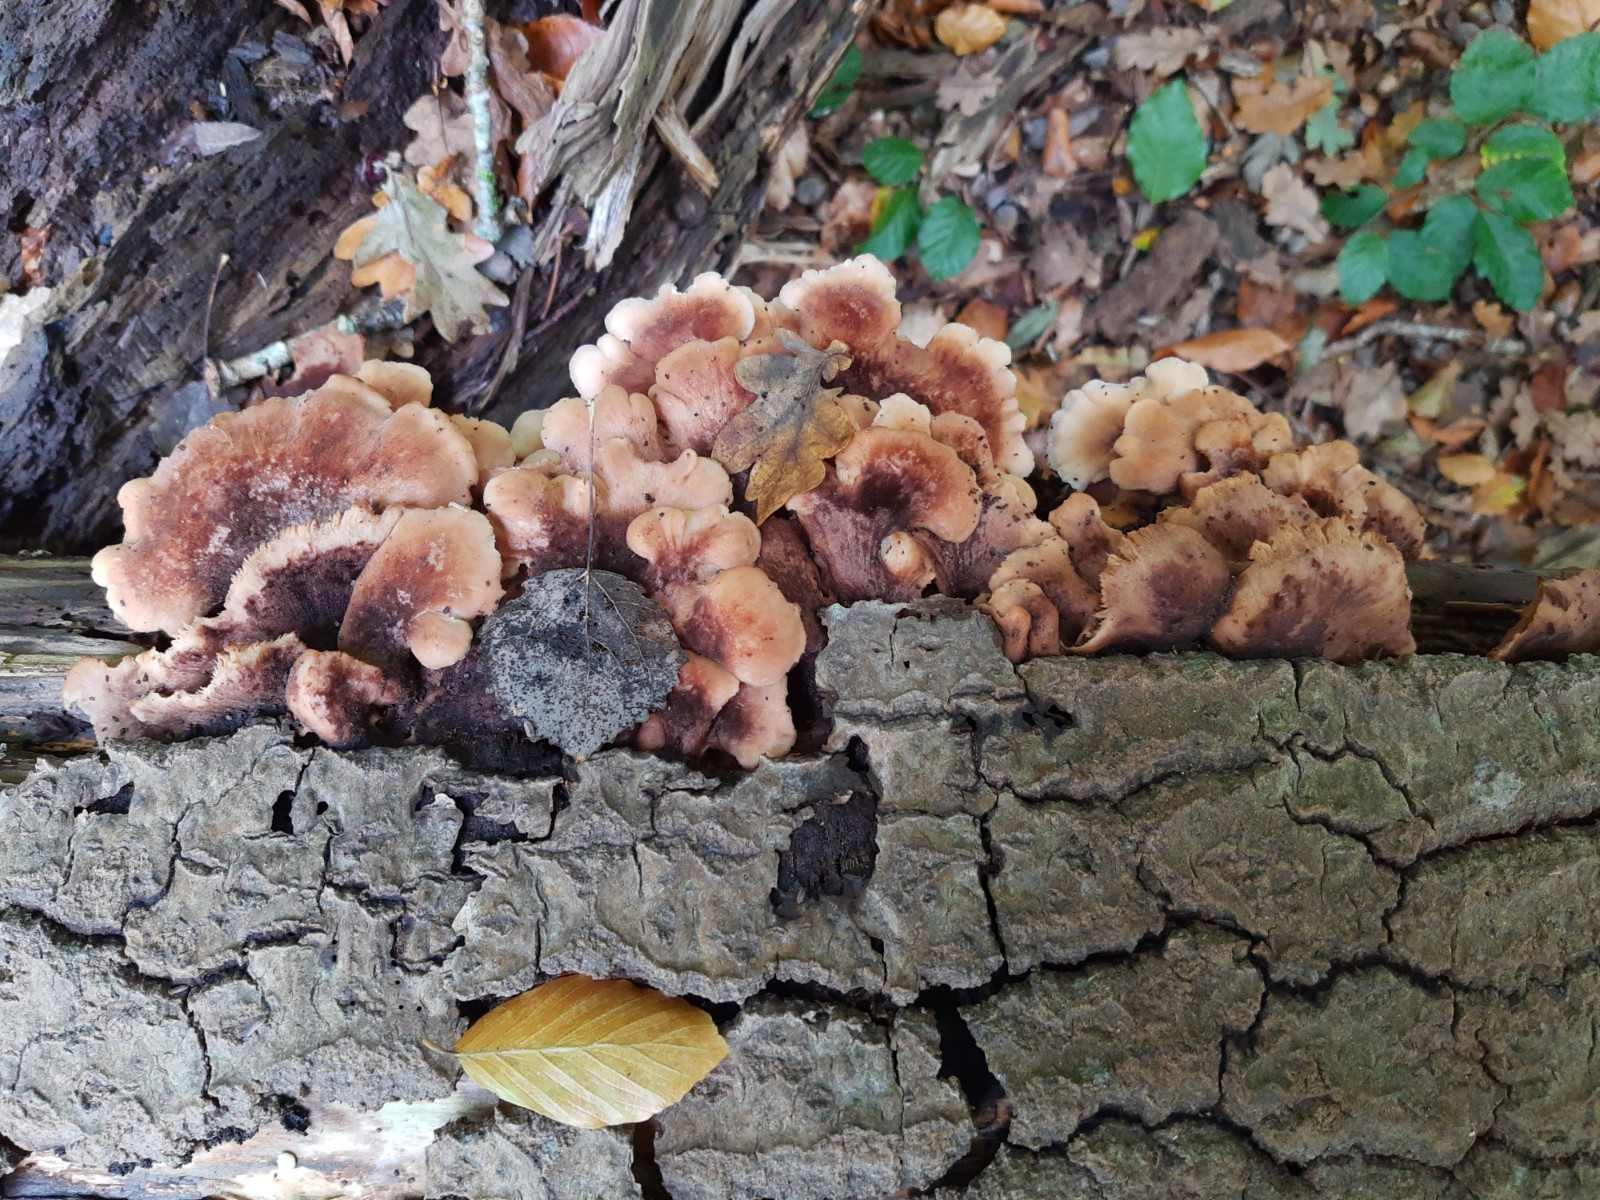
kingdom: Fungi
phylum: Basidiomycota
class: Agaricomycetes
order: Russulales
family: Auriscalpiaceae
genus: Lentinellus
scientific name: Lentinellus ursinus
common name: børstehåret savbladhat
